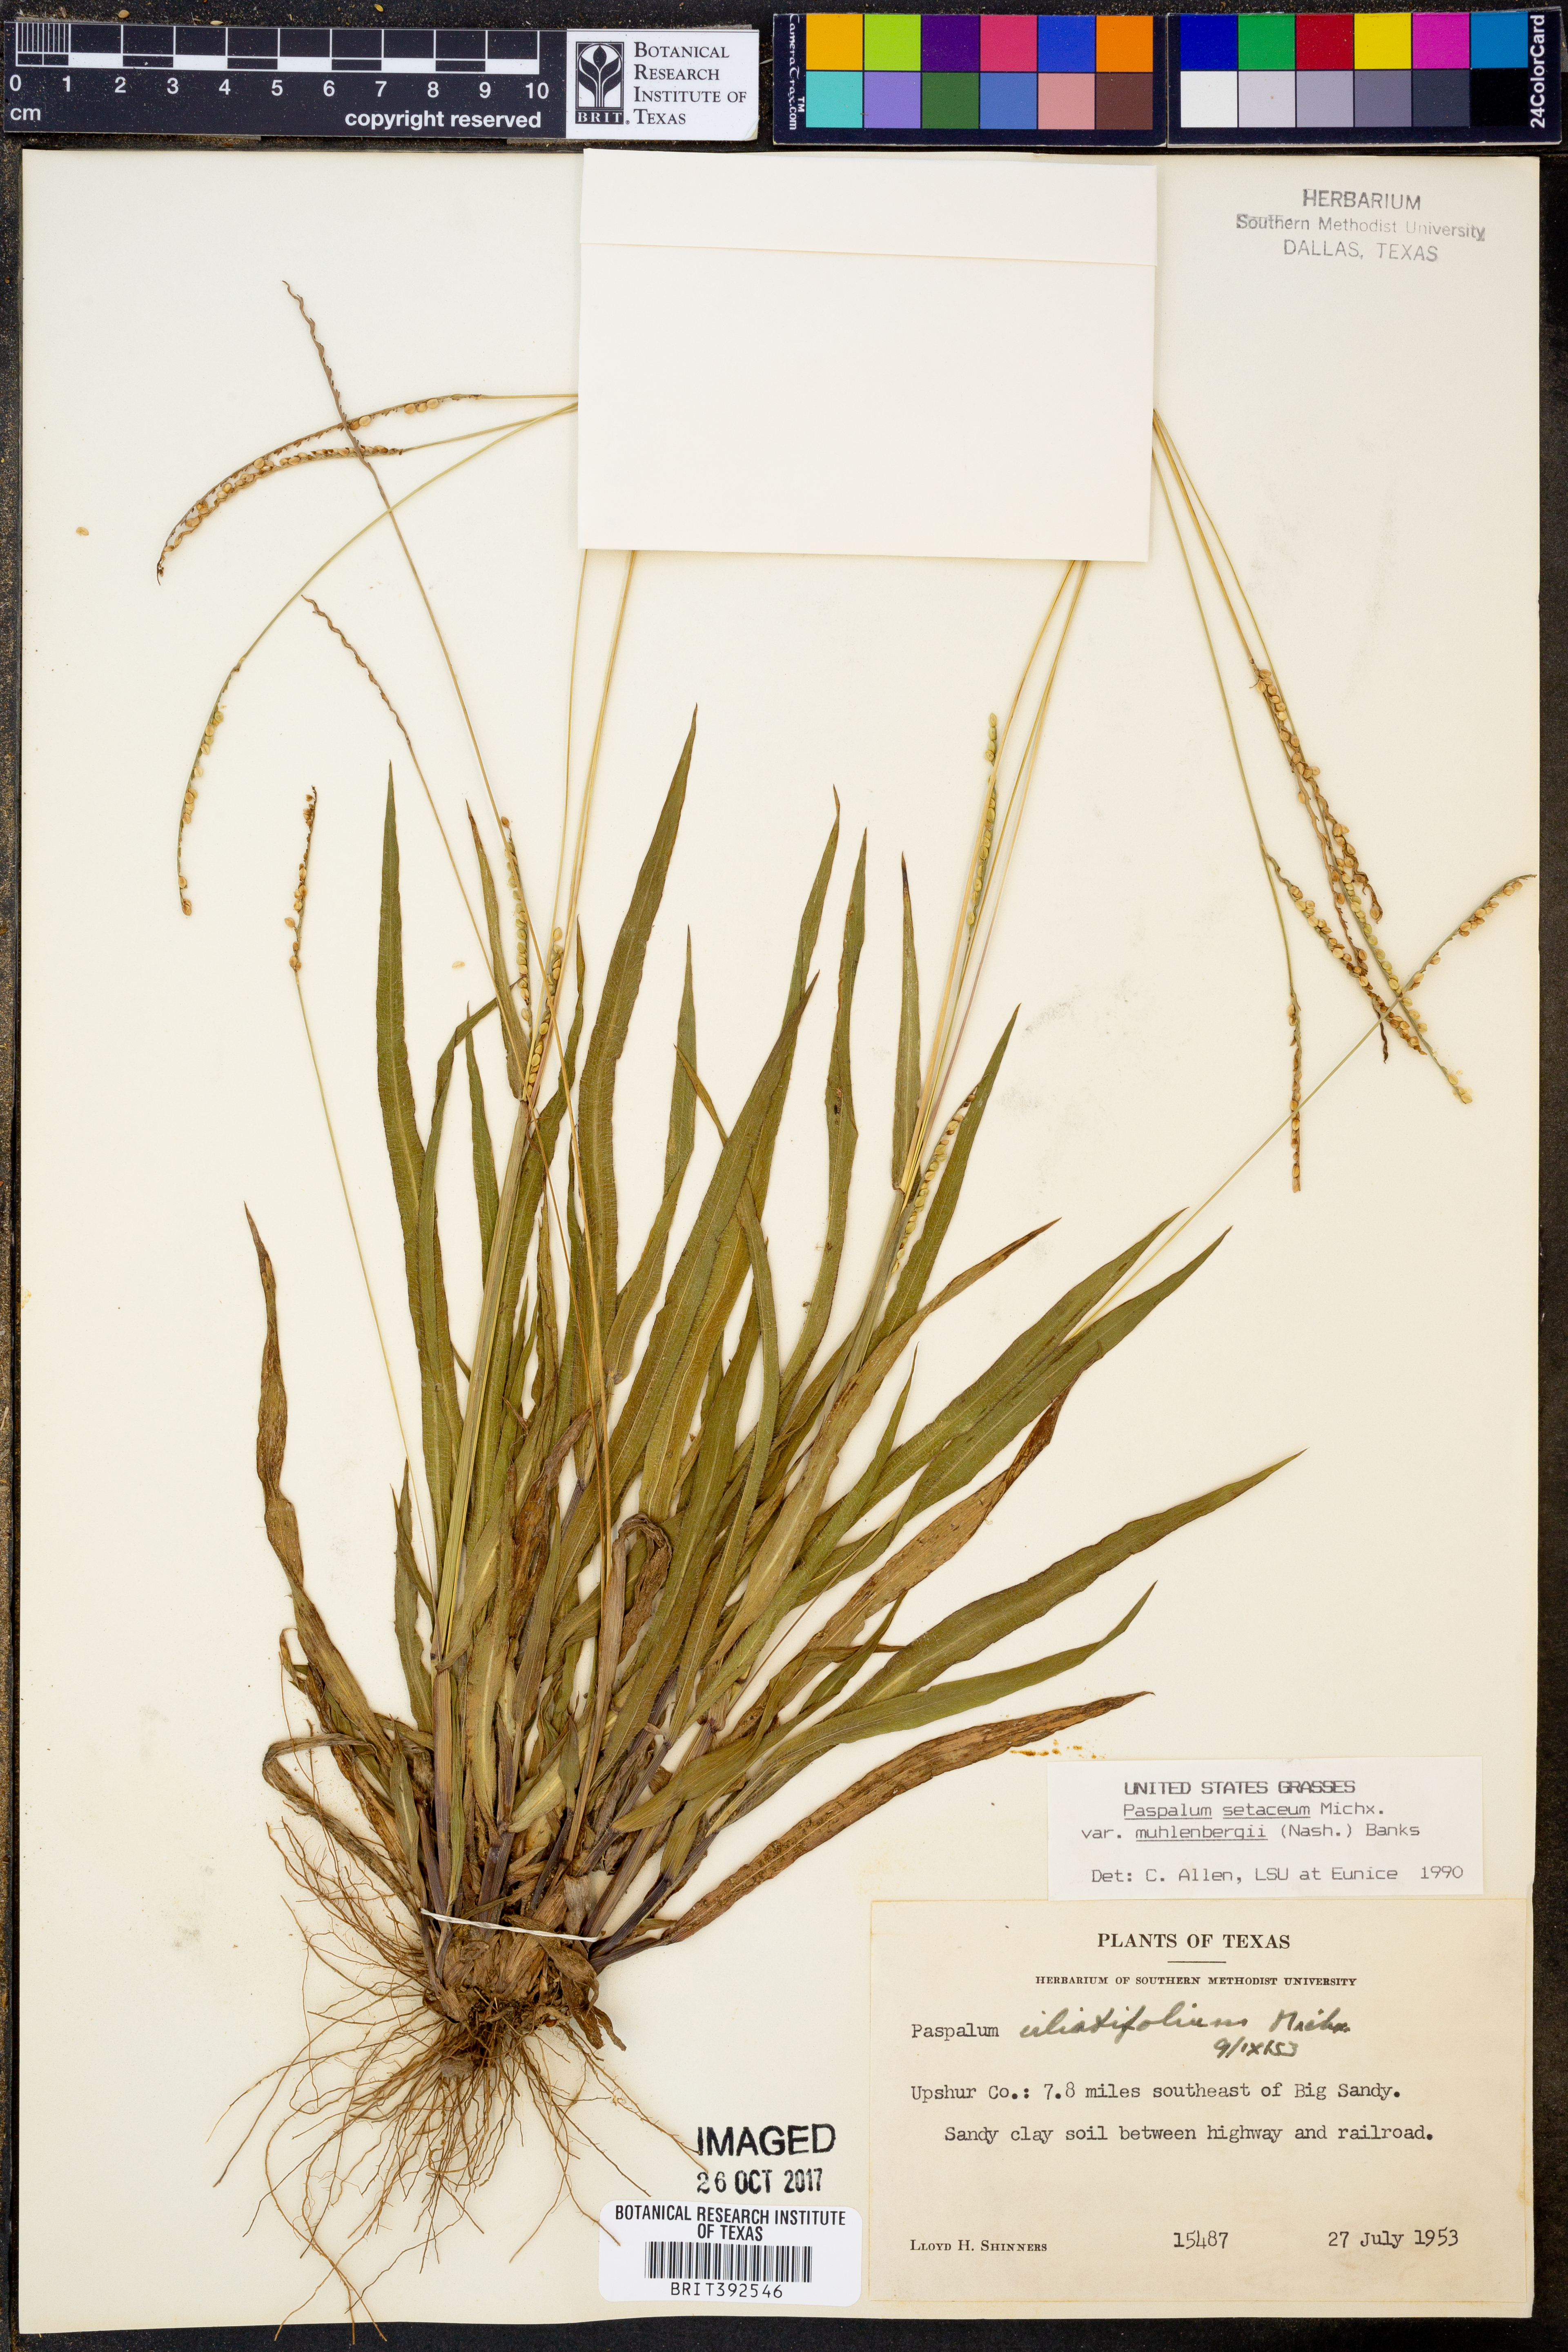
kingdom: Plantae
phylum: Tracheophyta
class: Liliopsida
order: Poales
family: Poaceae
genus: Paspalum
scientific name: Paspalum setaceum
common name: Slender paspalum
